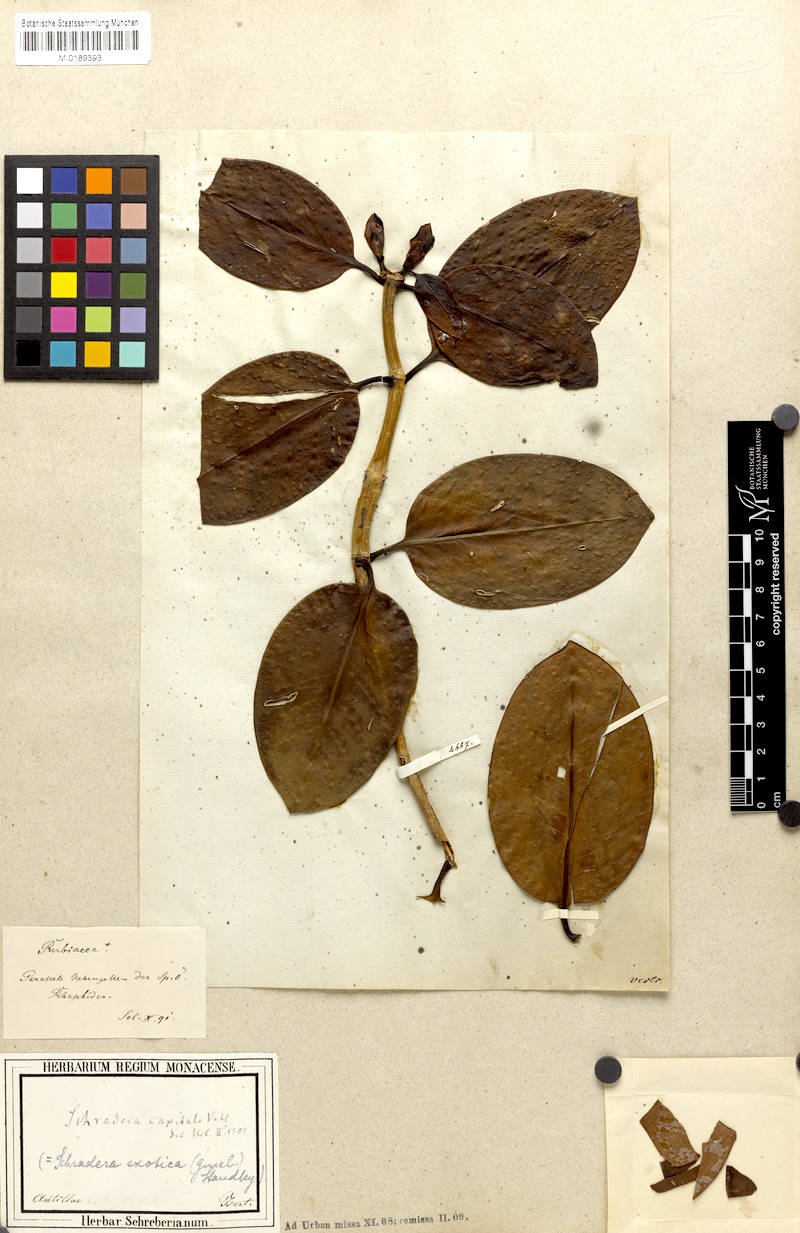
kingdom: Plantae
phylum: Tracheophyta
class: Magnoliopsida
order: Gentianales
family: Rubiaceae
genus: Schradera
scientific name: Schradera involucrata
